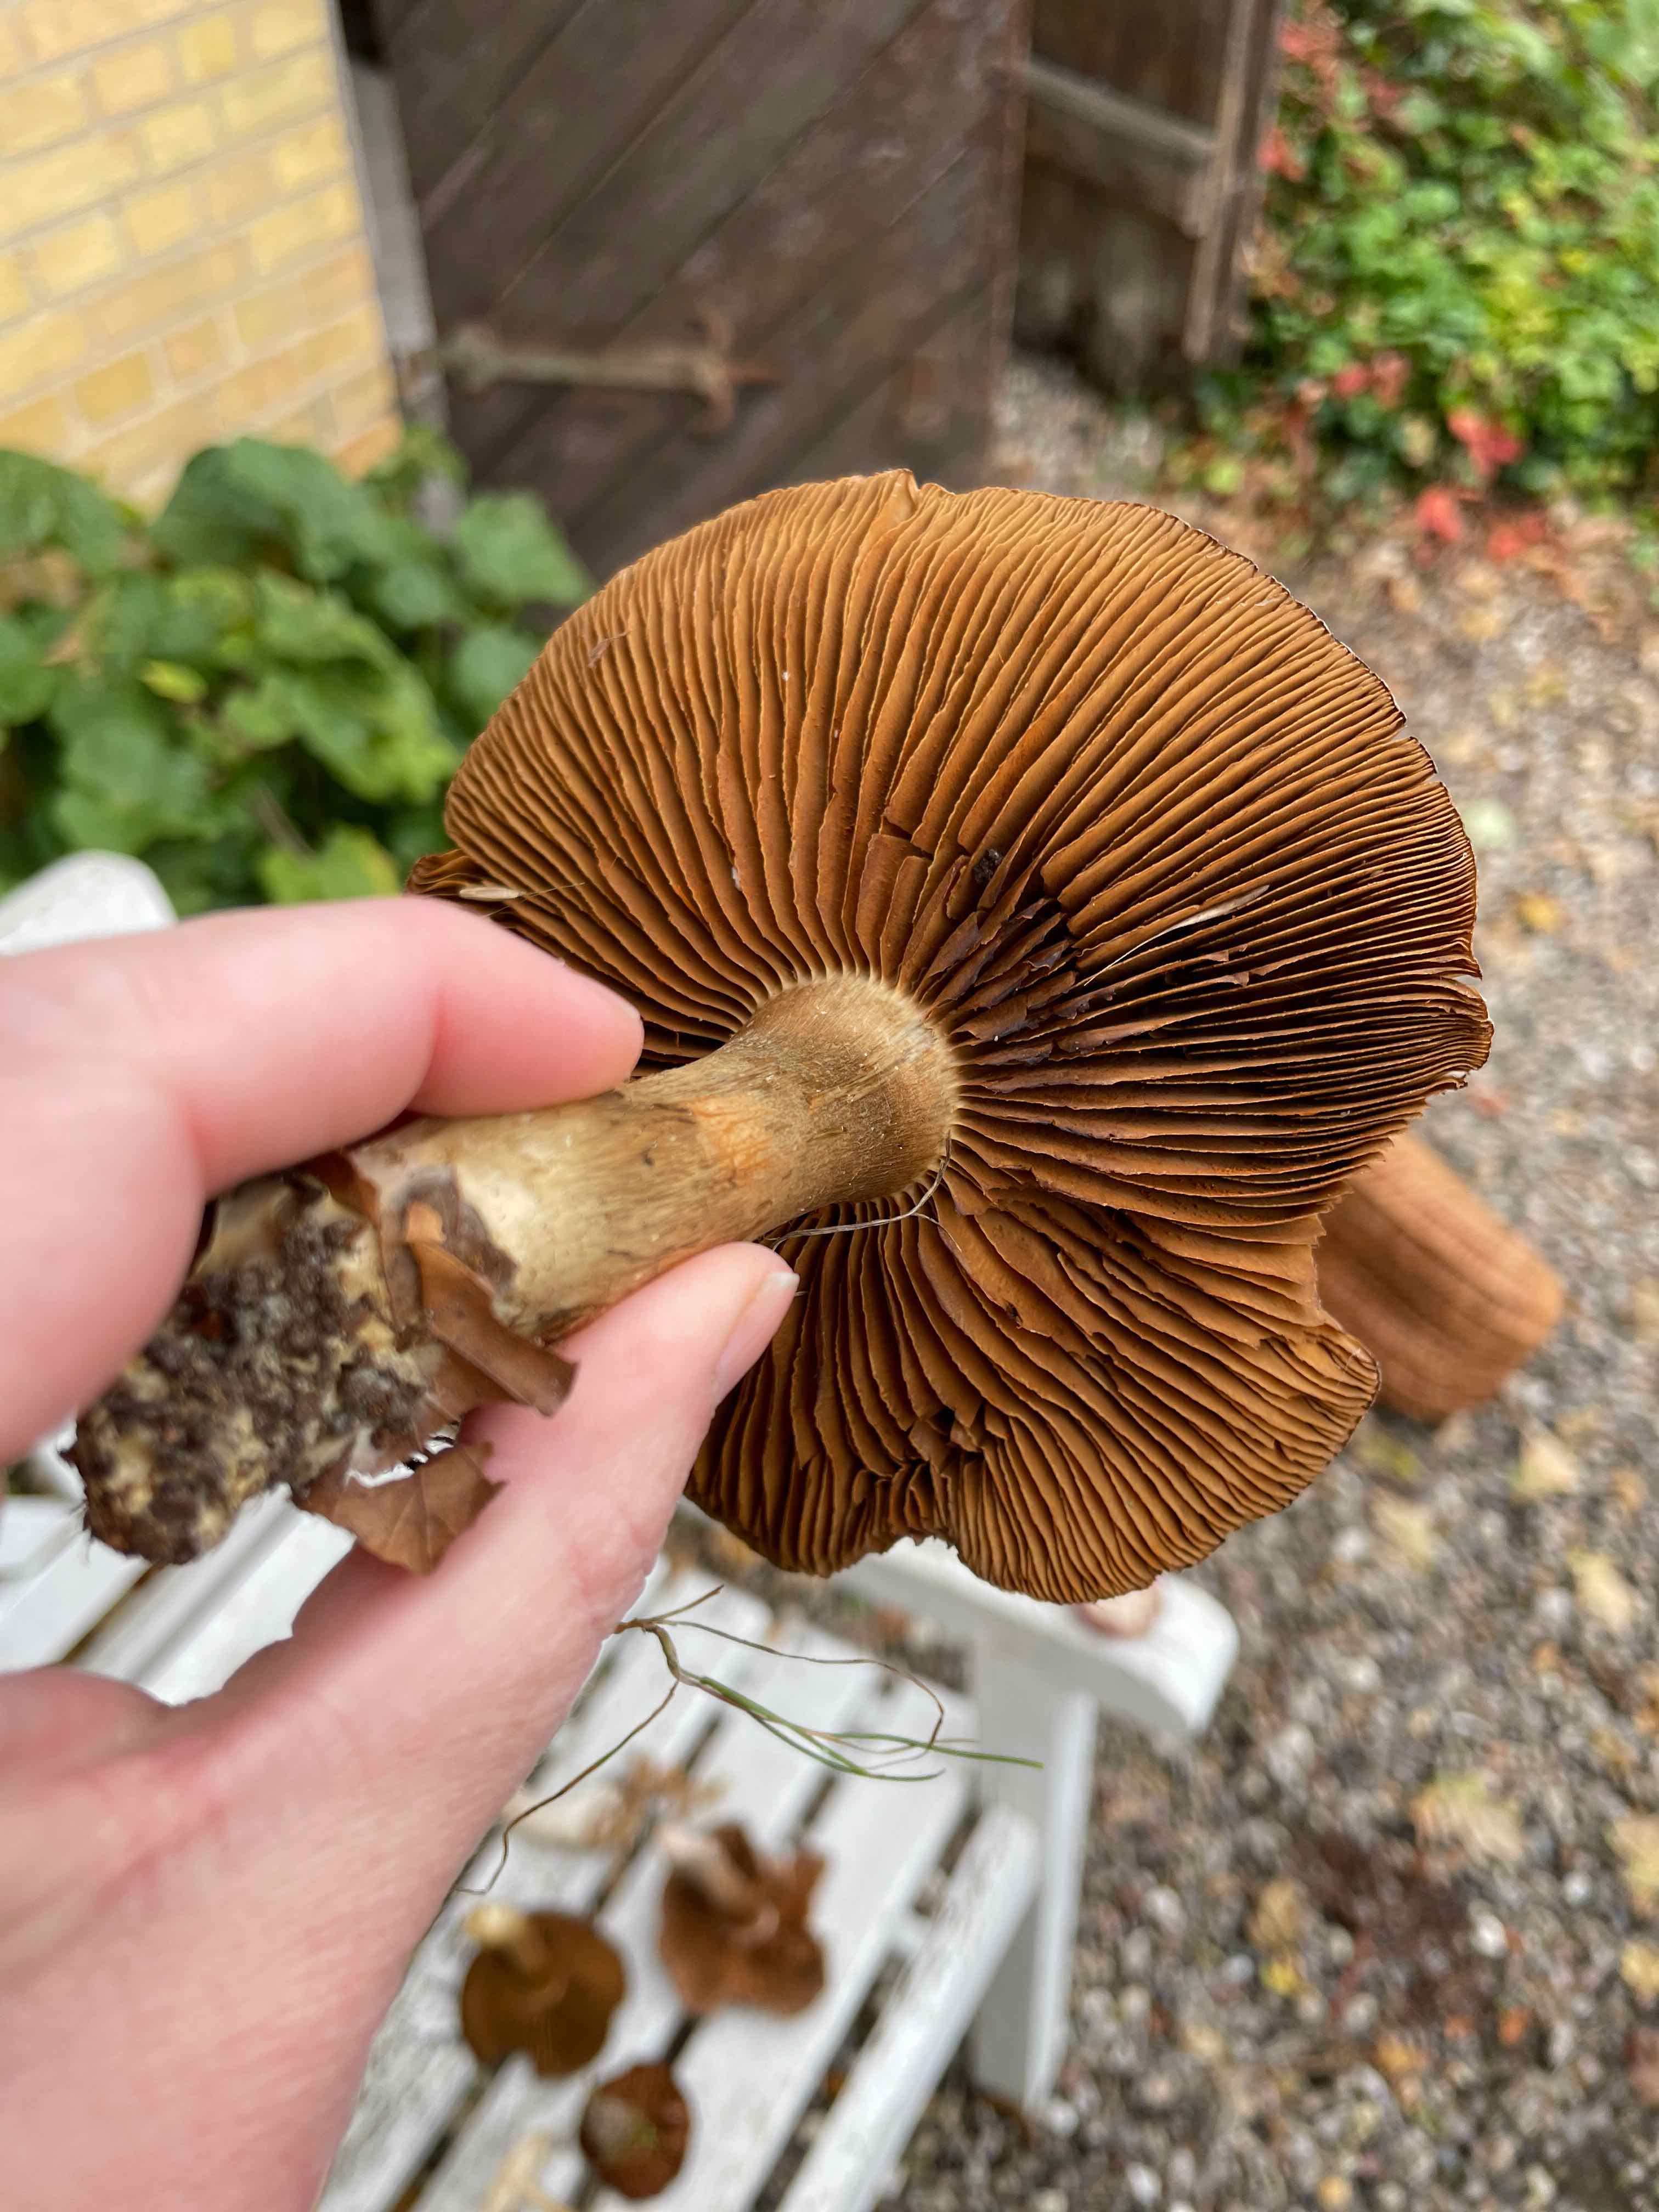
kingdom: Fungi
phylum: Basidiomycota
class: Agaricomycetes
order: Agaricales
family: Cortinariaceae
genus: Cortinarius
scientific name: Cortinarius
